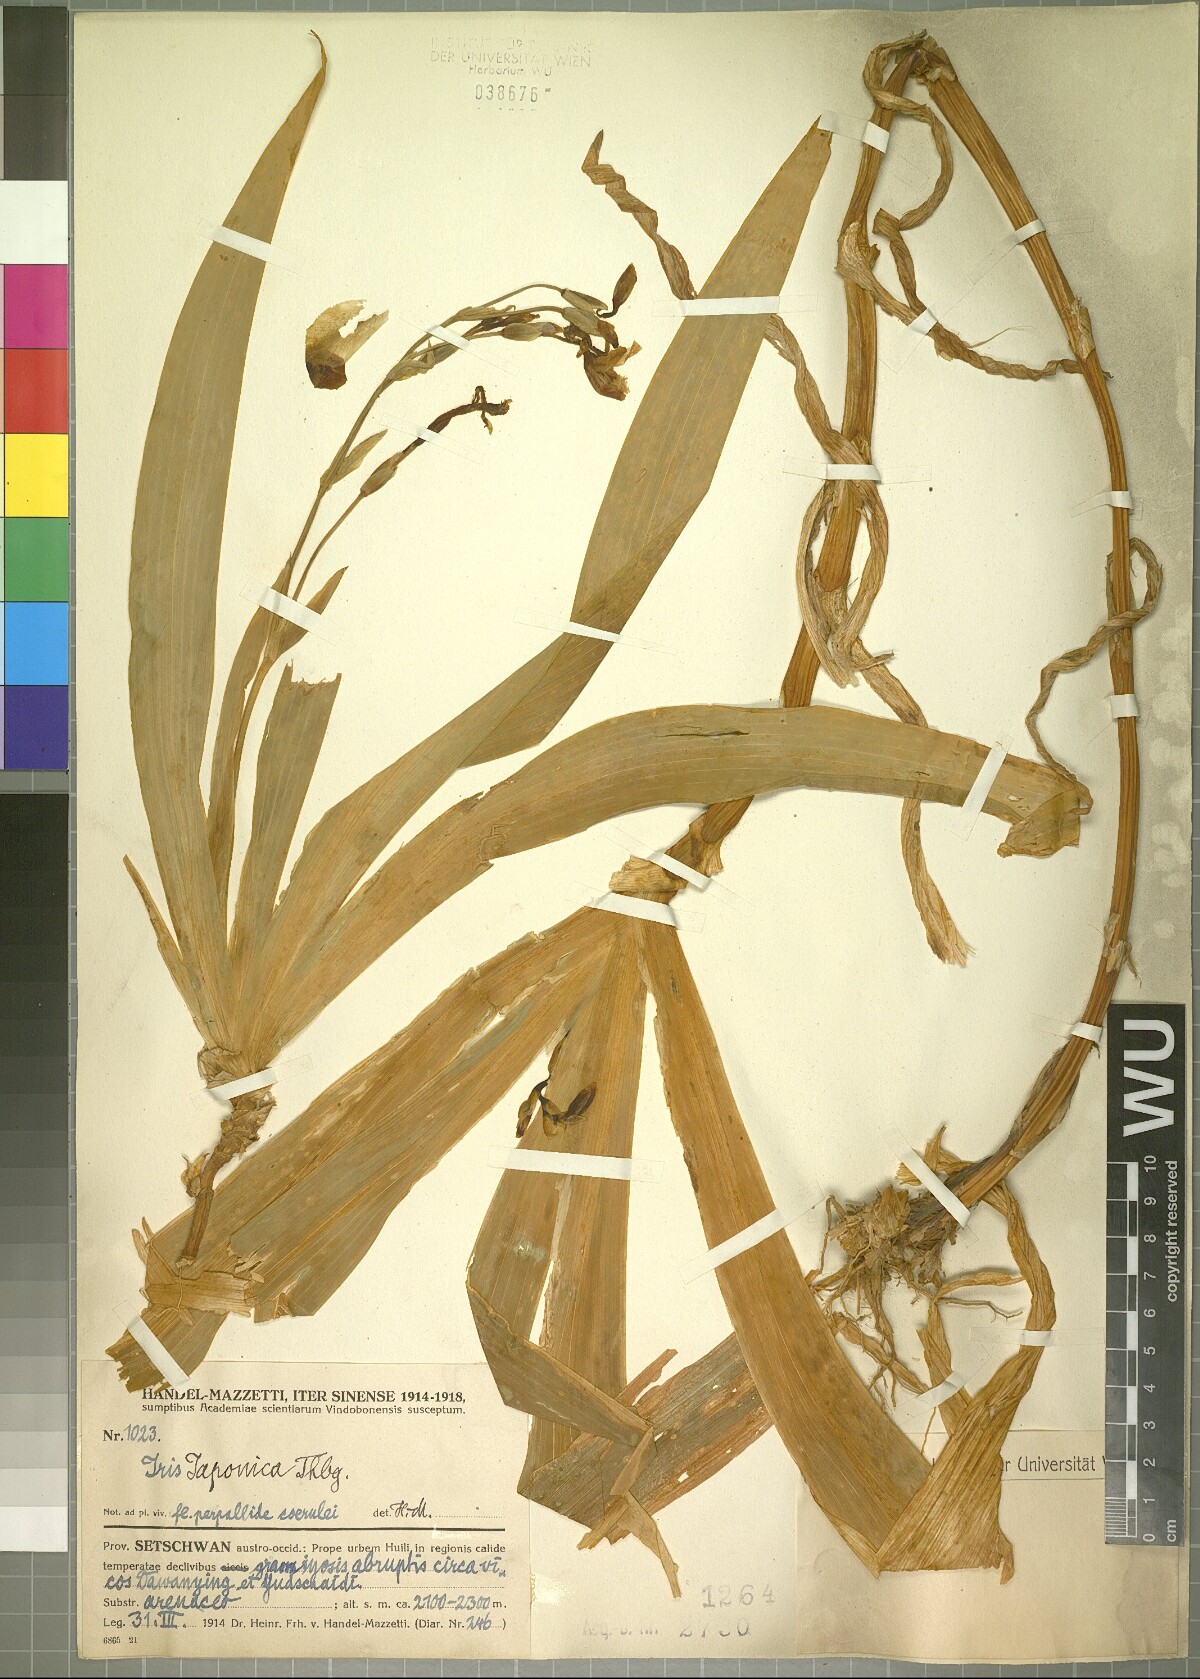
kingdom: Plantae
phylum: Tracheophyta
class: Liliopsida
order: Asparagales
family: Iridaceae
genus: Iris
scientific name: Iris japonica
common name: Butterfly-flower
